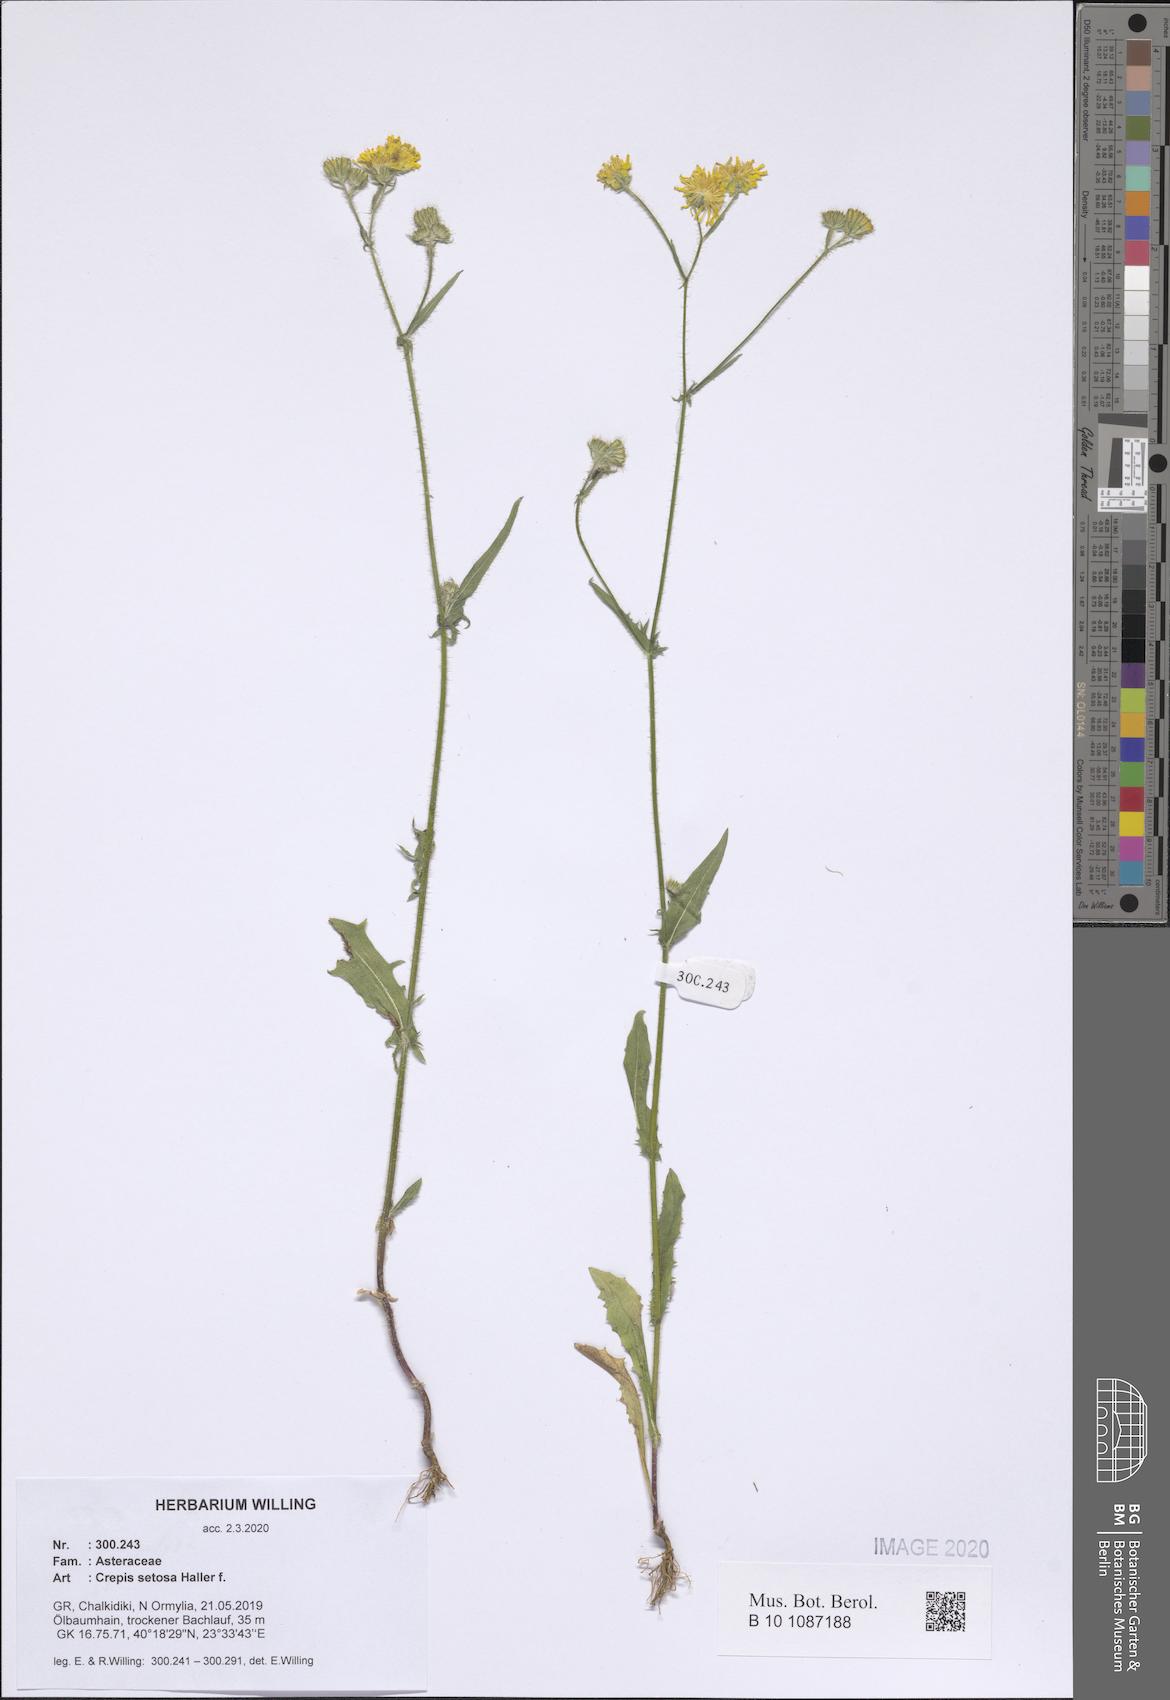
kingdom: Plantae
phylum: Tracheophyta
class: Magnoliopsida
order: Asterales
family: Asteraceae
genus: Crepis
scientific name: Crepis setosa
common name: Bristly hawk's-beard
